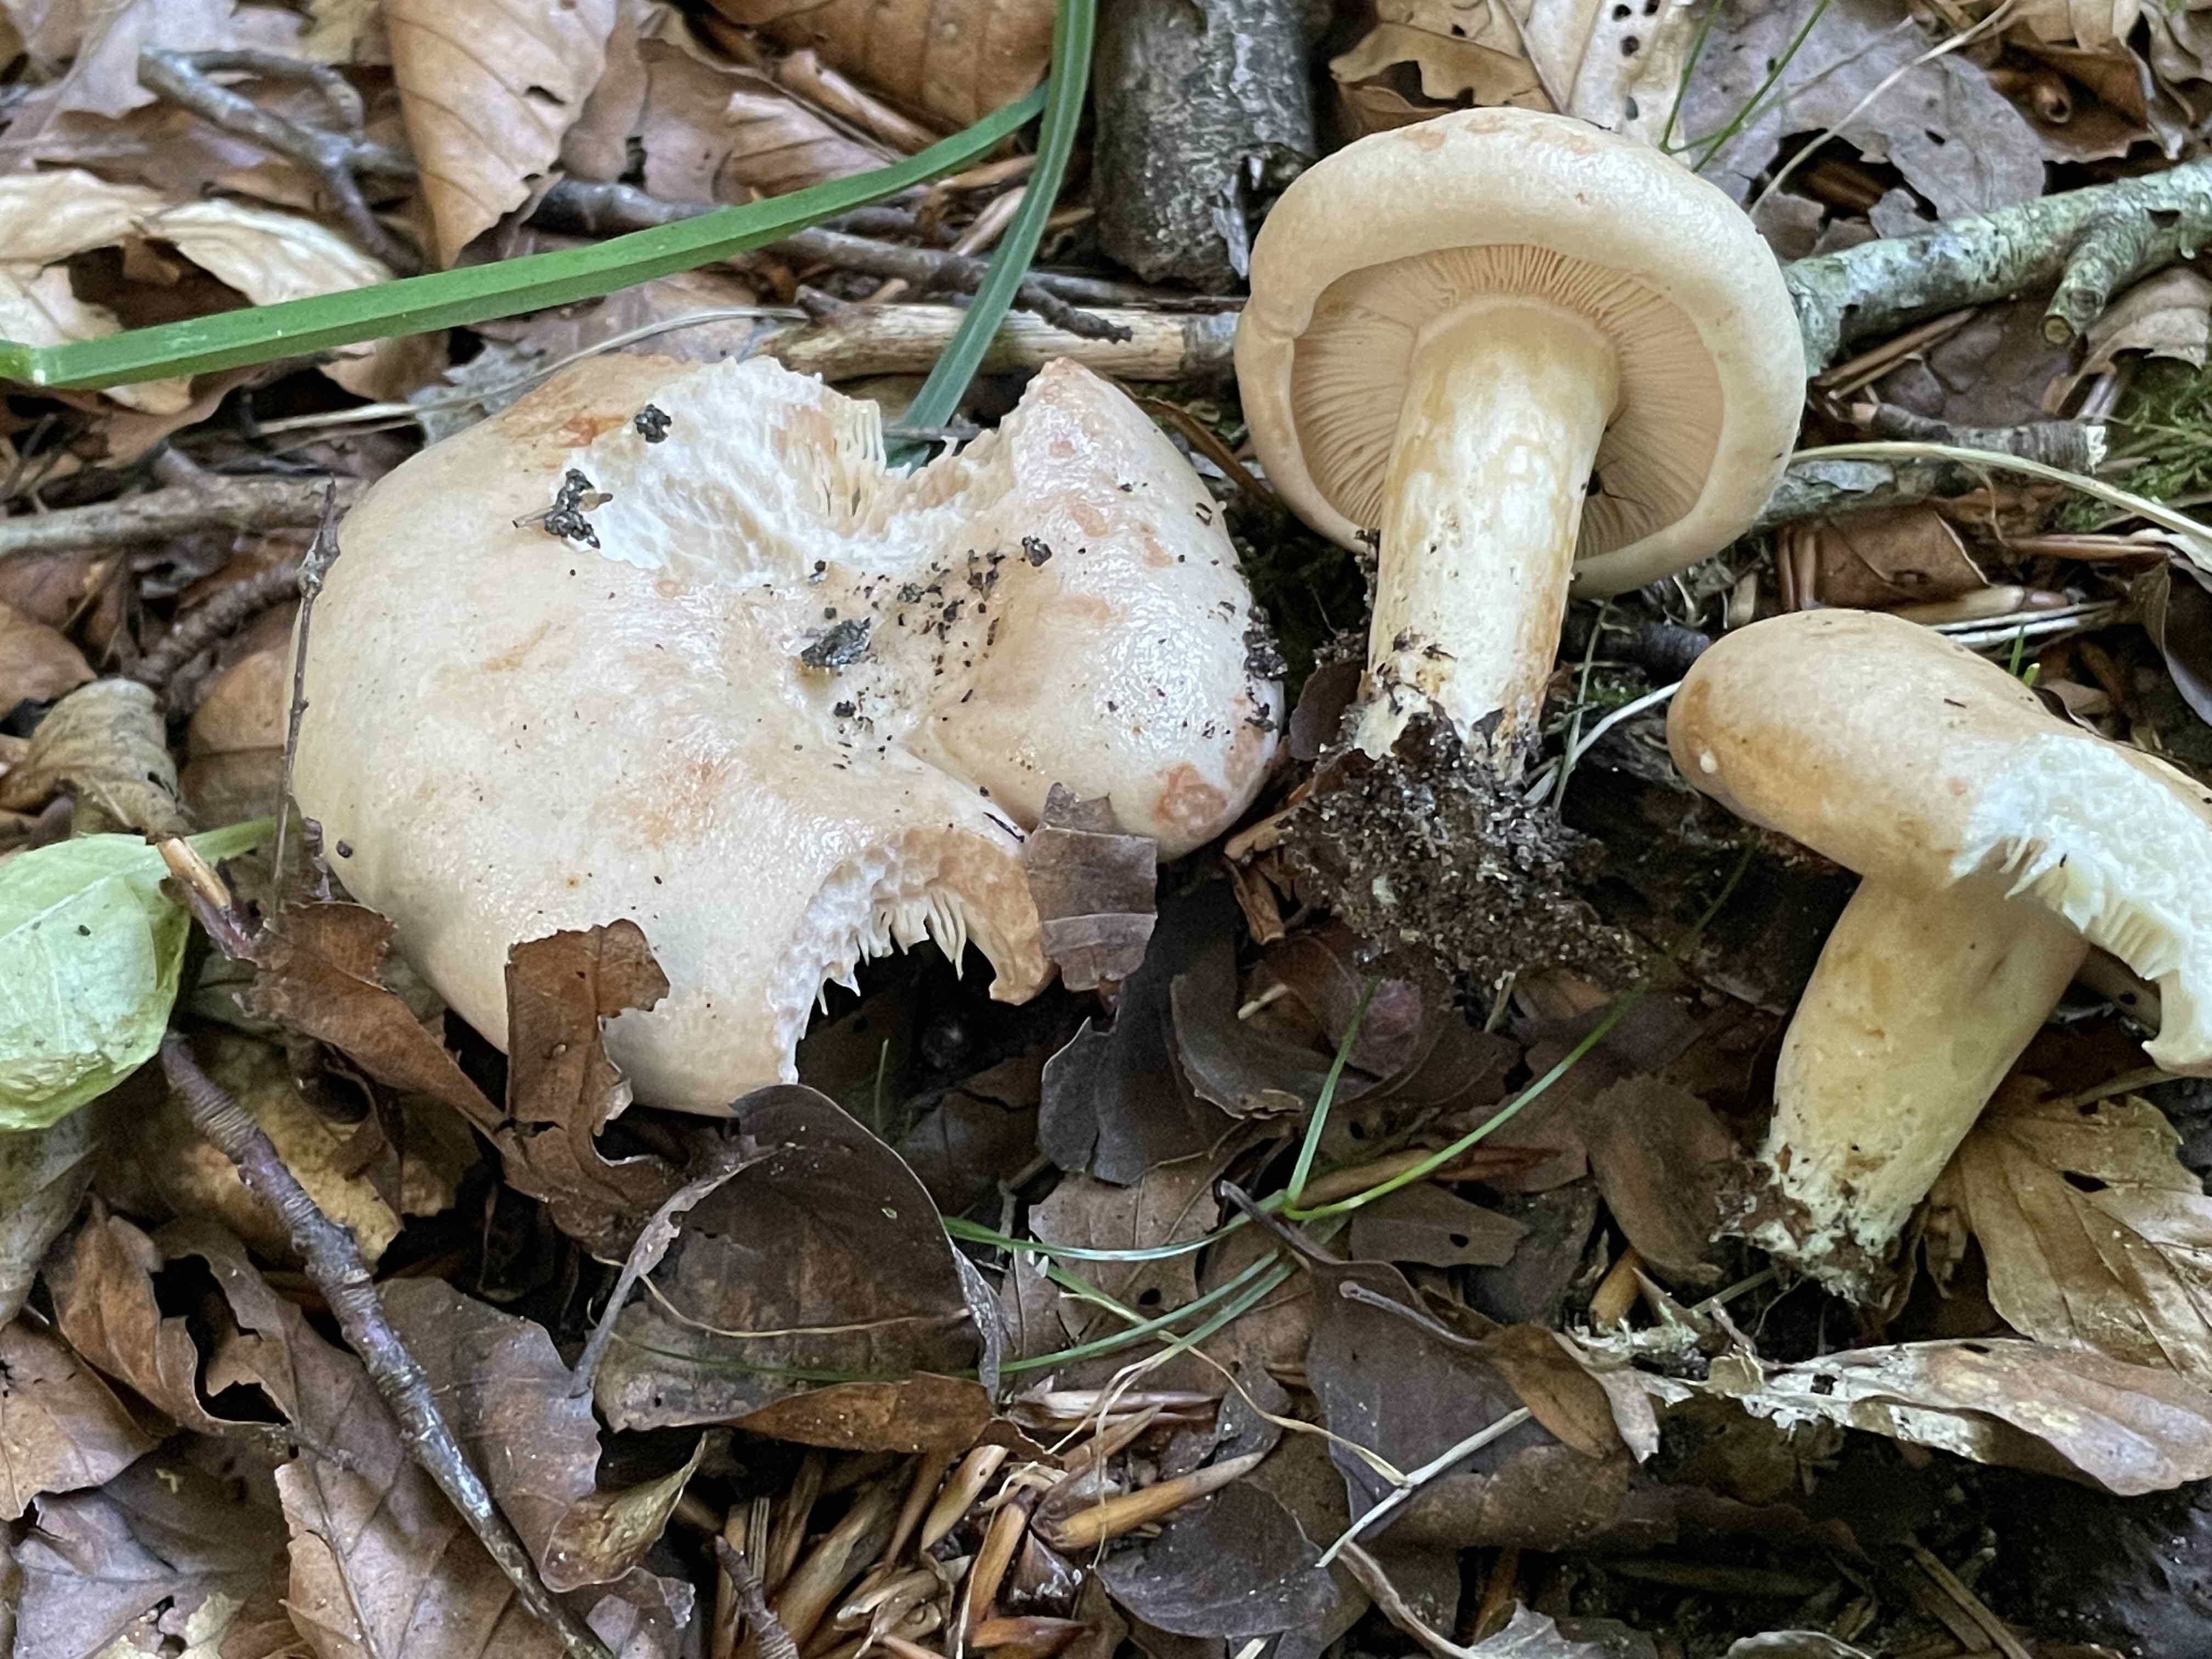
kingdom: Fungi
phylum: Basidiomycota
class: Agaricomycetes
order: Russulales
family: Russulaceae
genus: Lactarius
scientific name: Lactarius pallidus
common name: bleg mælkehat
